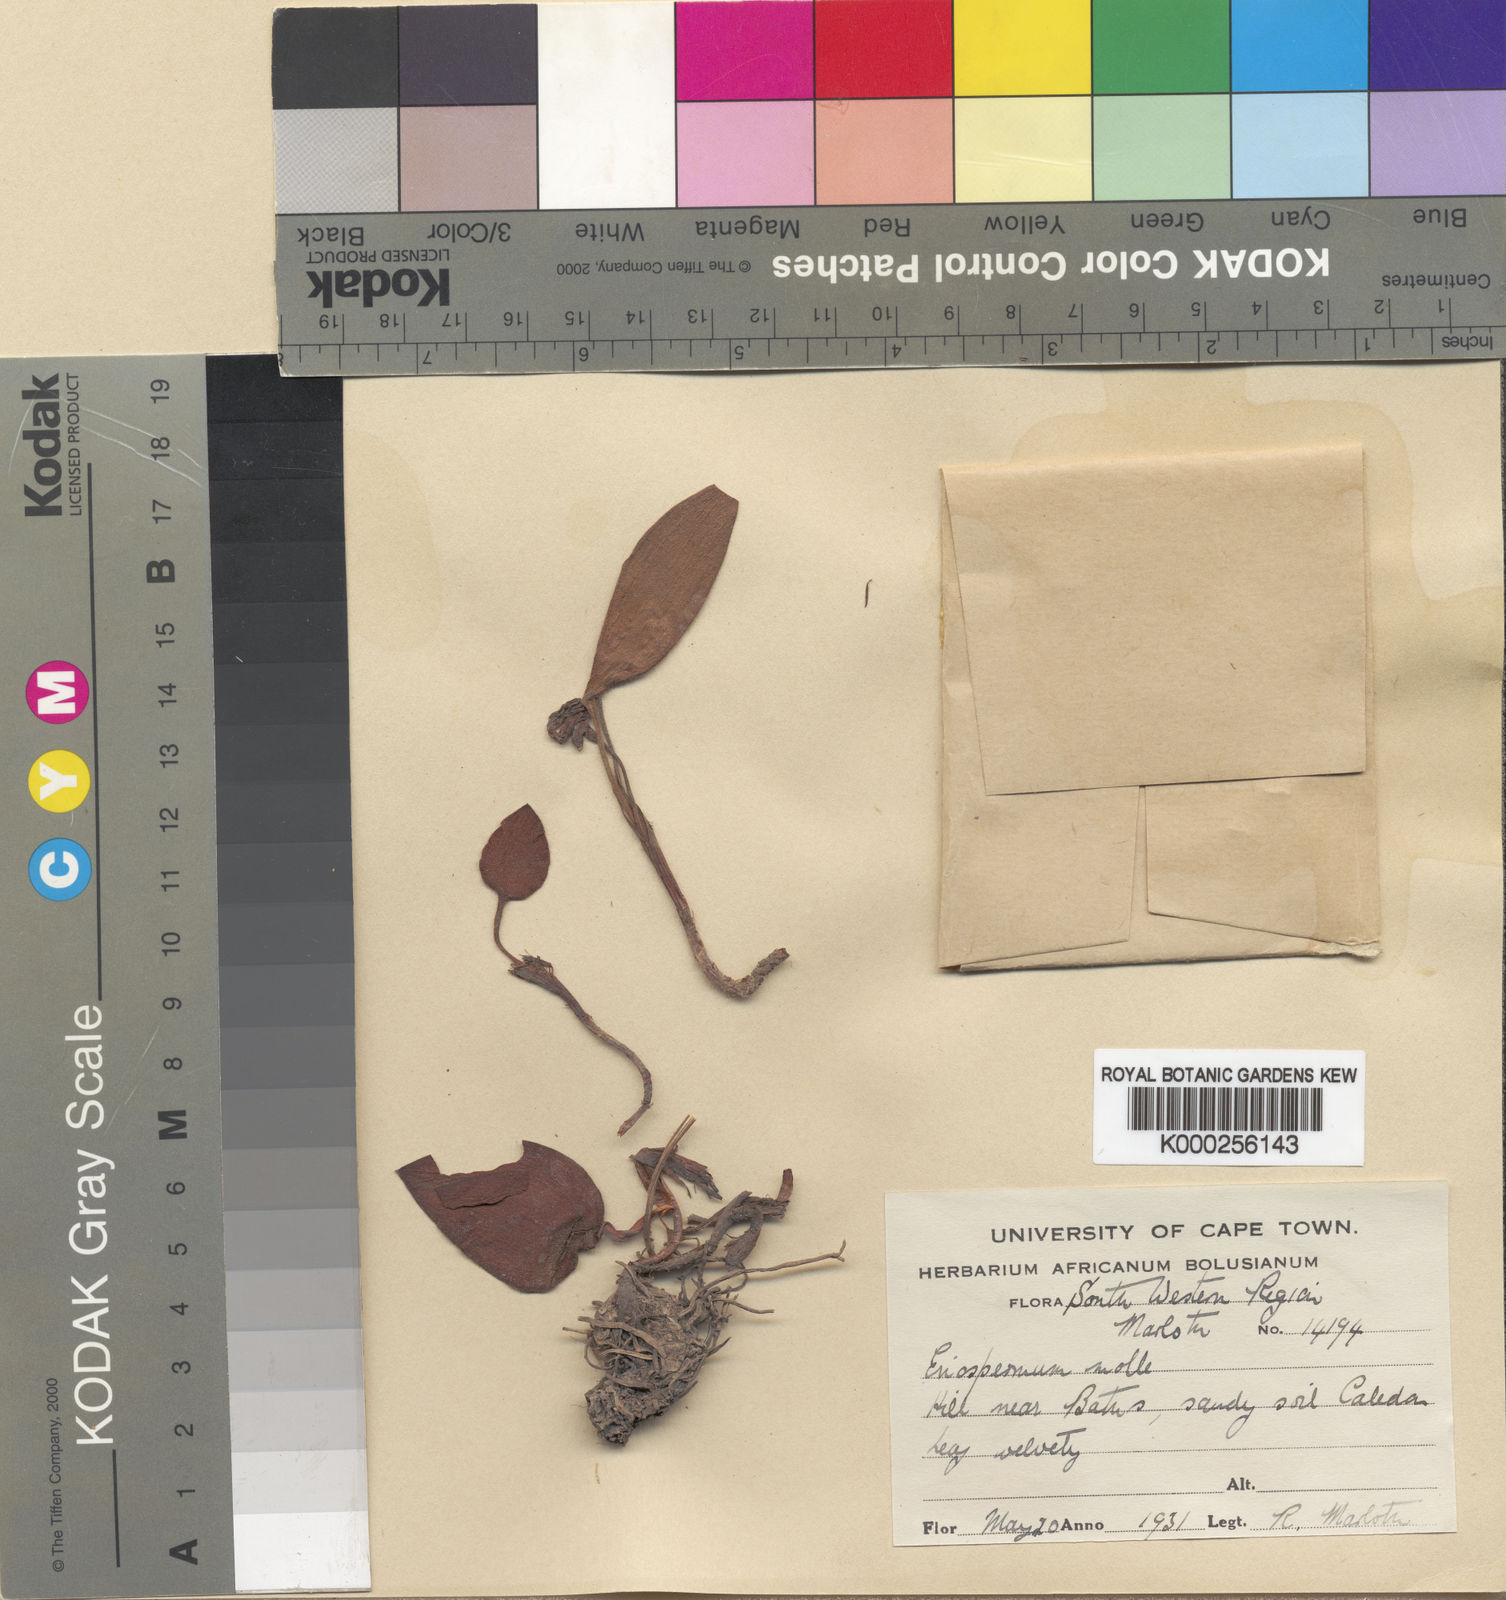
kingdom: Plantae
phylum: Tracheophyta
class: Liliopsida
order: Asparagales
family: Asparagaceae
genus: Eriospermum
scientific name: Eriospermum
